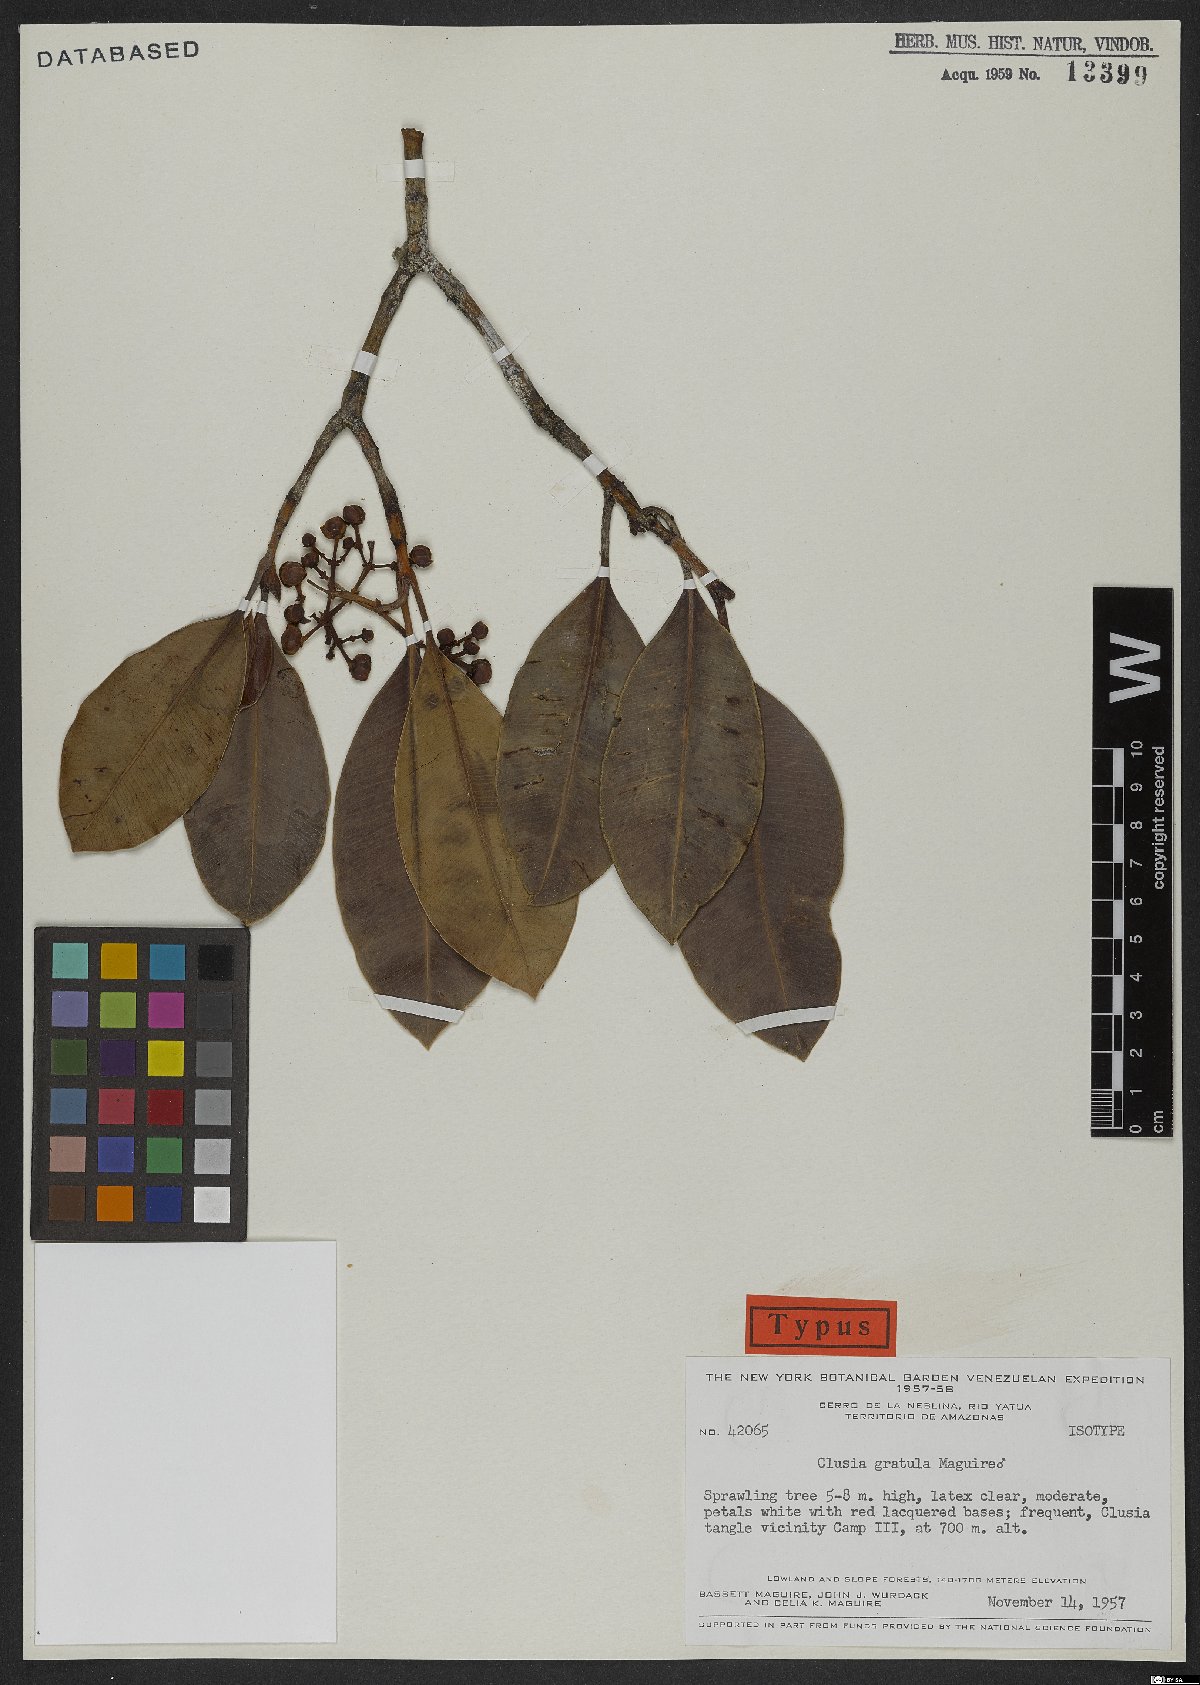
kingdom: Plantae
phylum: Tracheophyta
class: Magnoliopsida
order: Malpighiales
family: Clusiaceae
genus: Clusia
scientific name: Clusia gratula
